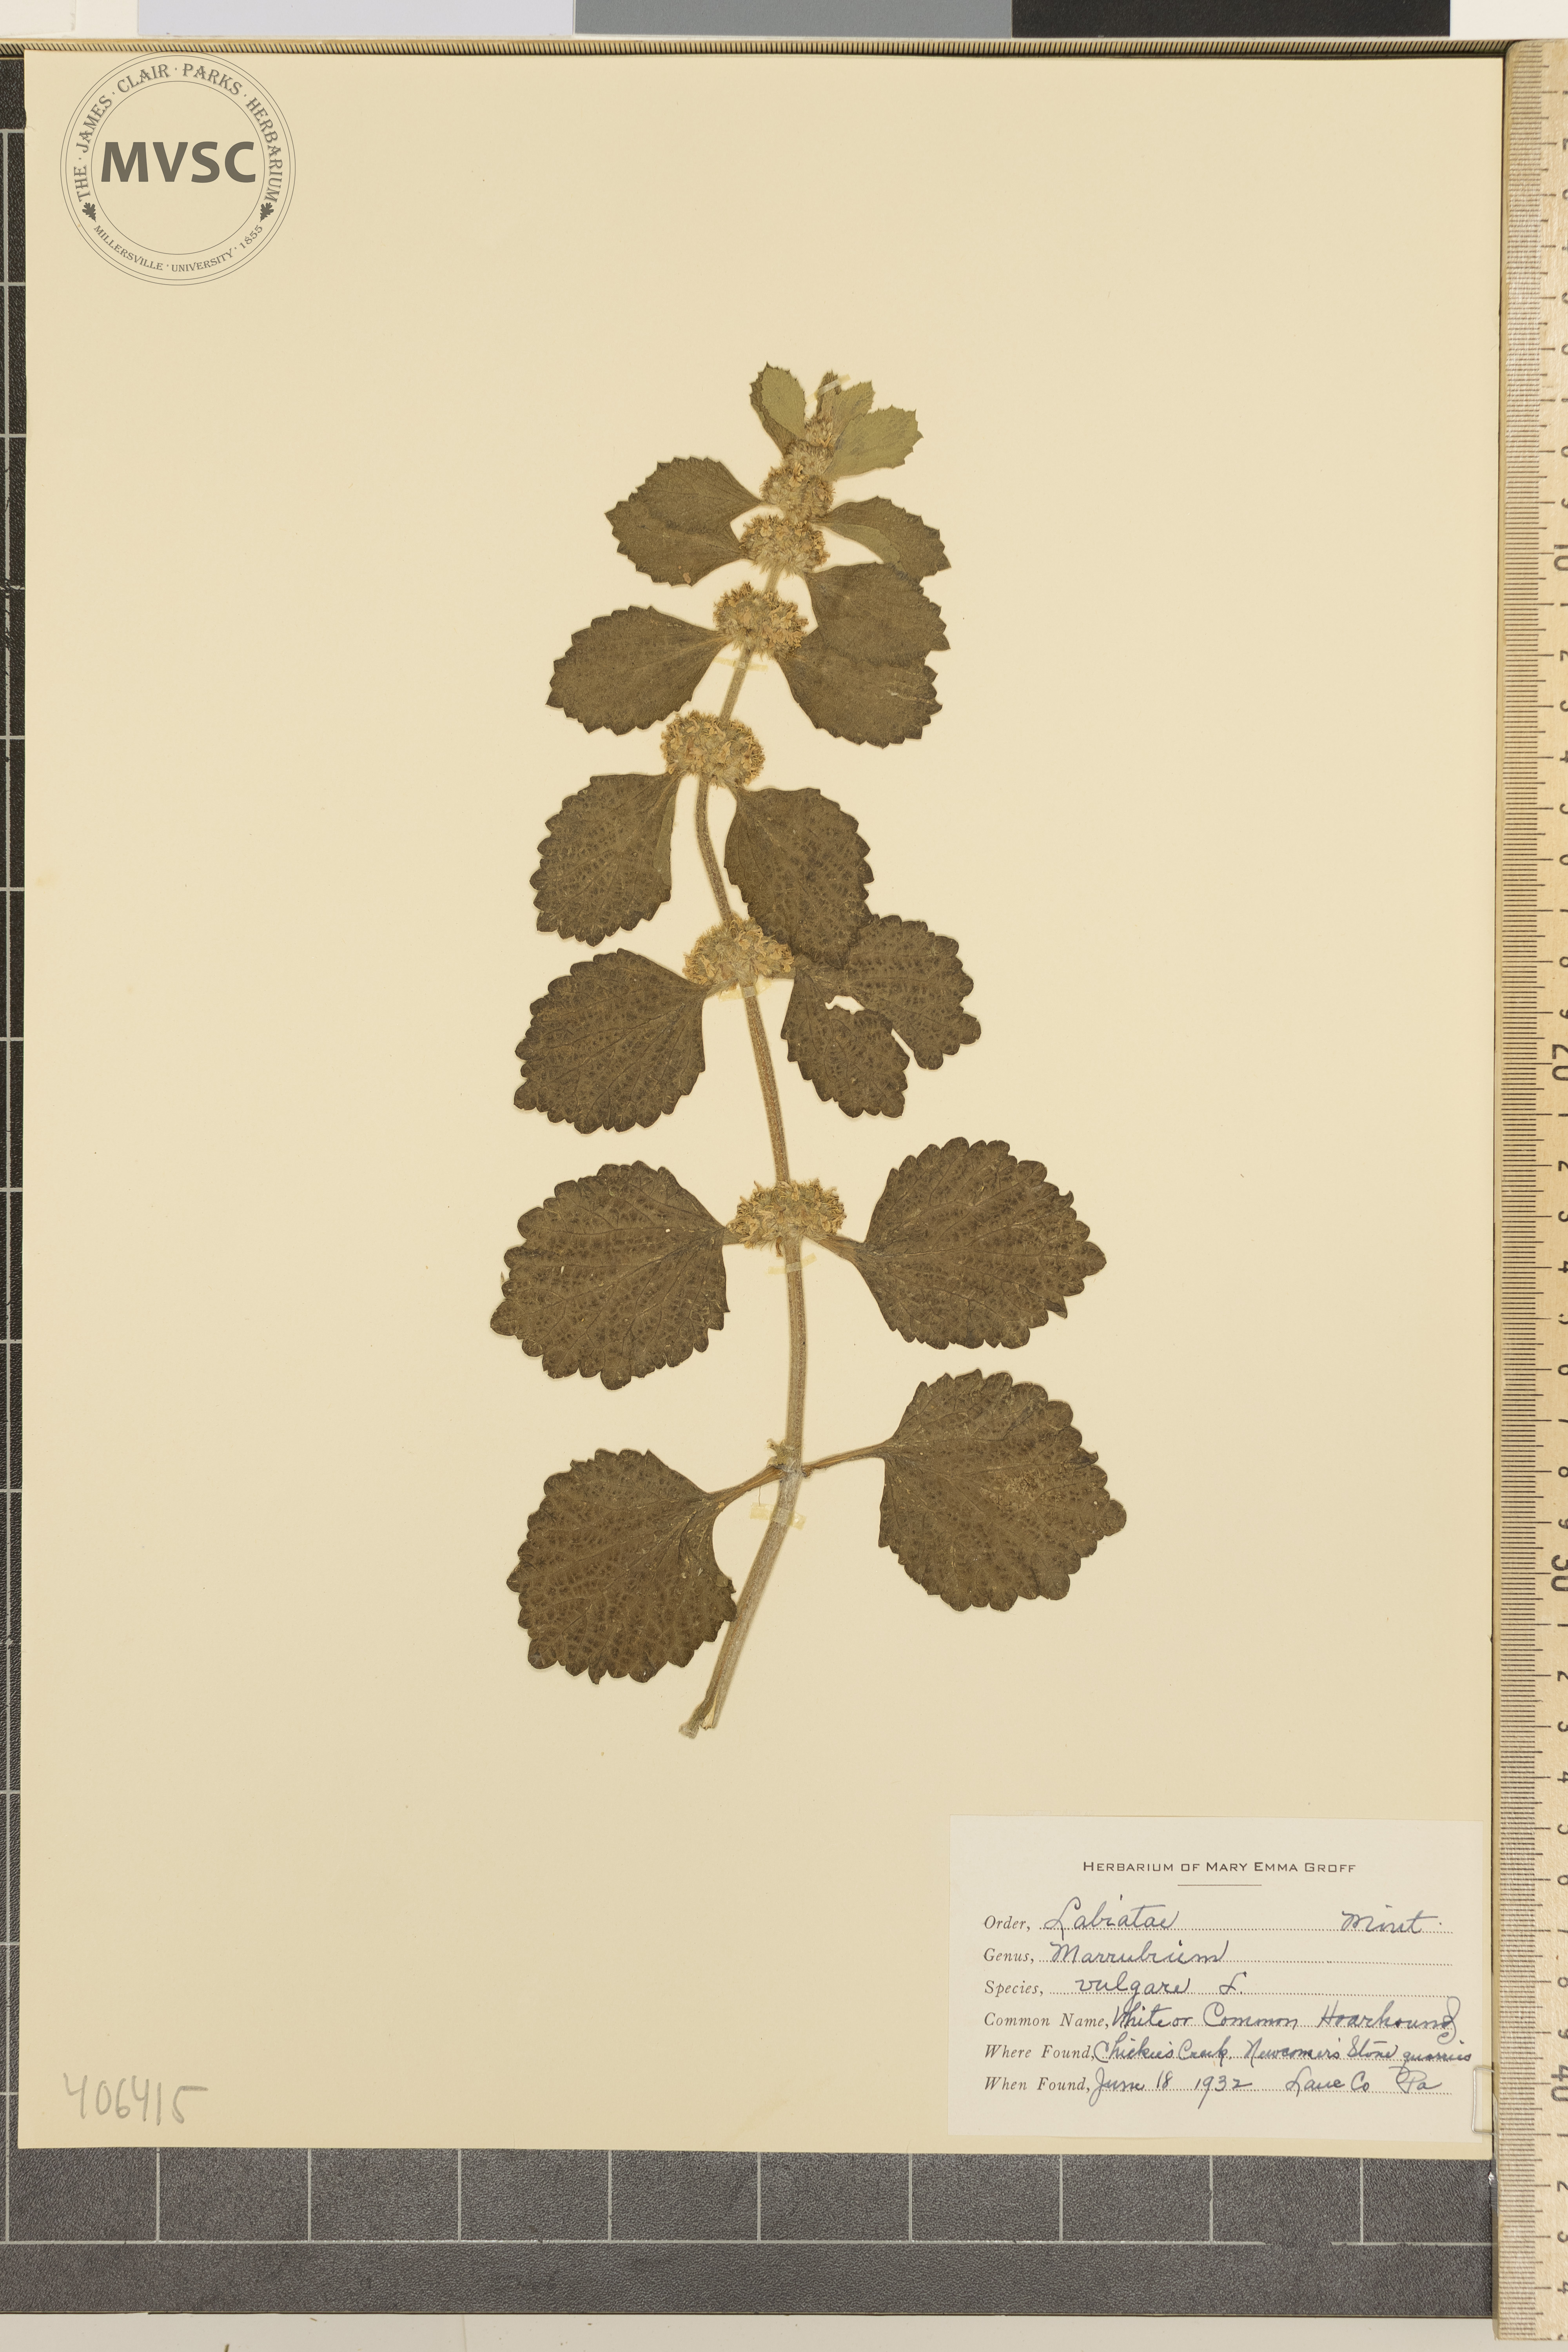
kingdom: Plantae
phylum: Tracheophyta
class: Magnoliopsida
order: Lamiales
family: Lamiaceae
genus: Marrubium
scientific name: Marrubium vulgare
